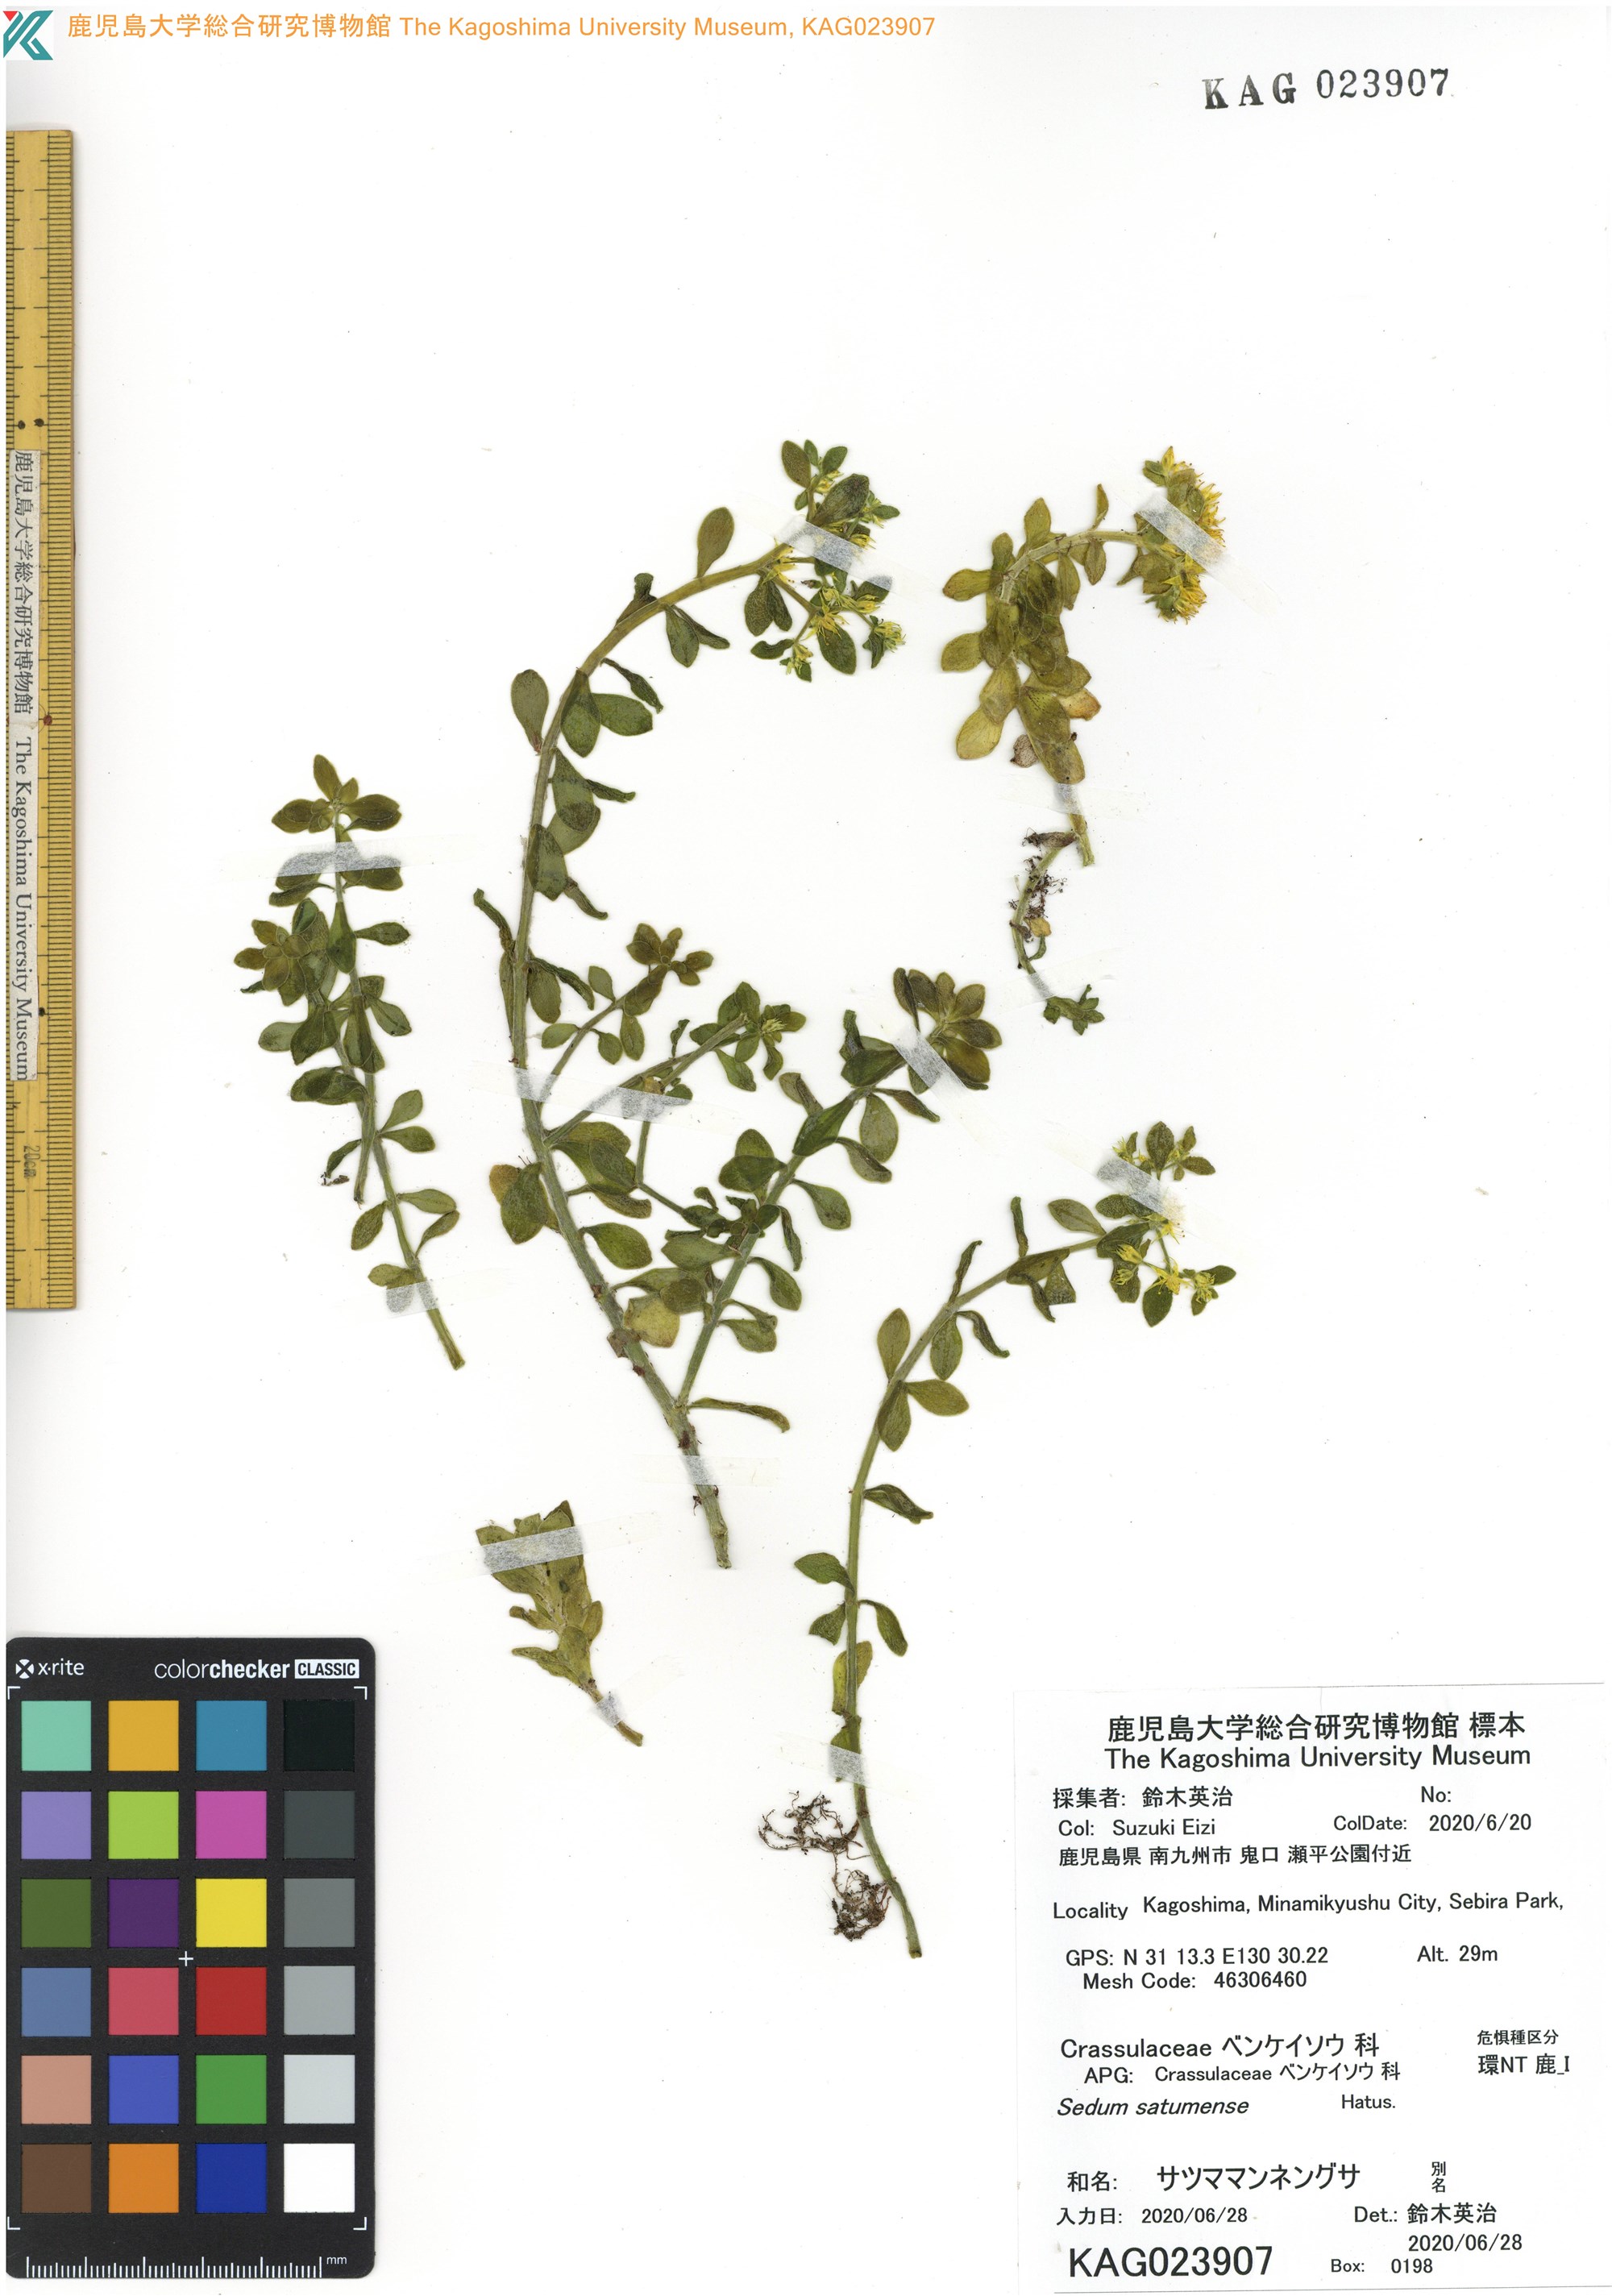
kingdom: Plantae
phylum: Tracheophyta
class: Magnoliopsida
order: Saxifragales
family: Crassulaceae
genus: Sedum
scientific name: Sedum satumense
